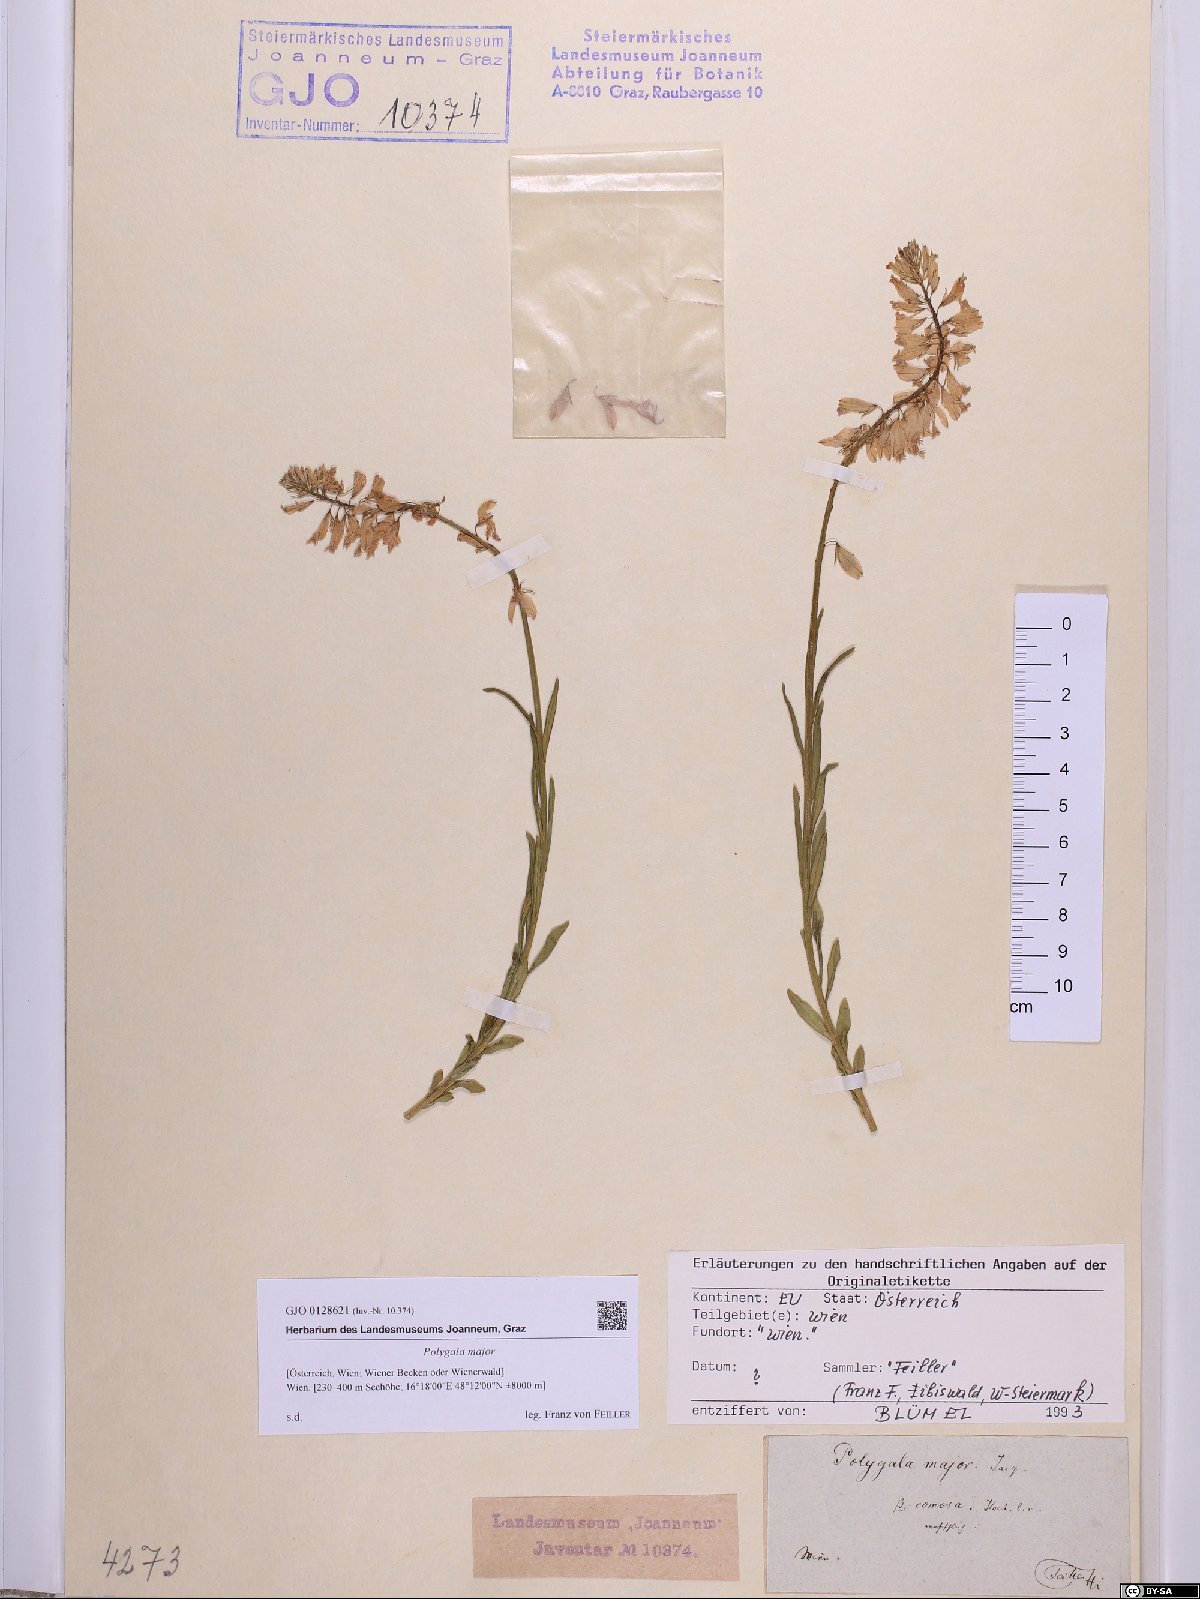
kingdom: Plantae
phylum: Tracheophyta
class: Magnoliopsida
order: Fabales
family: Polygalaceae
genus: Polygala
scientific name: Polygala major
